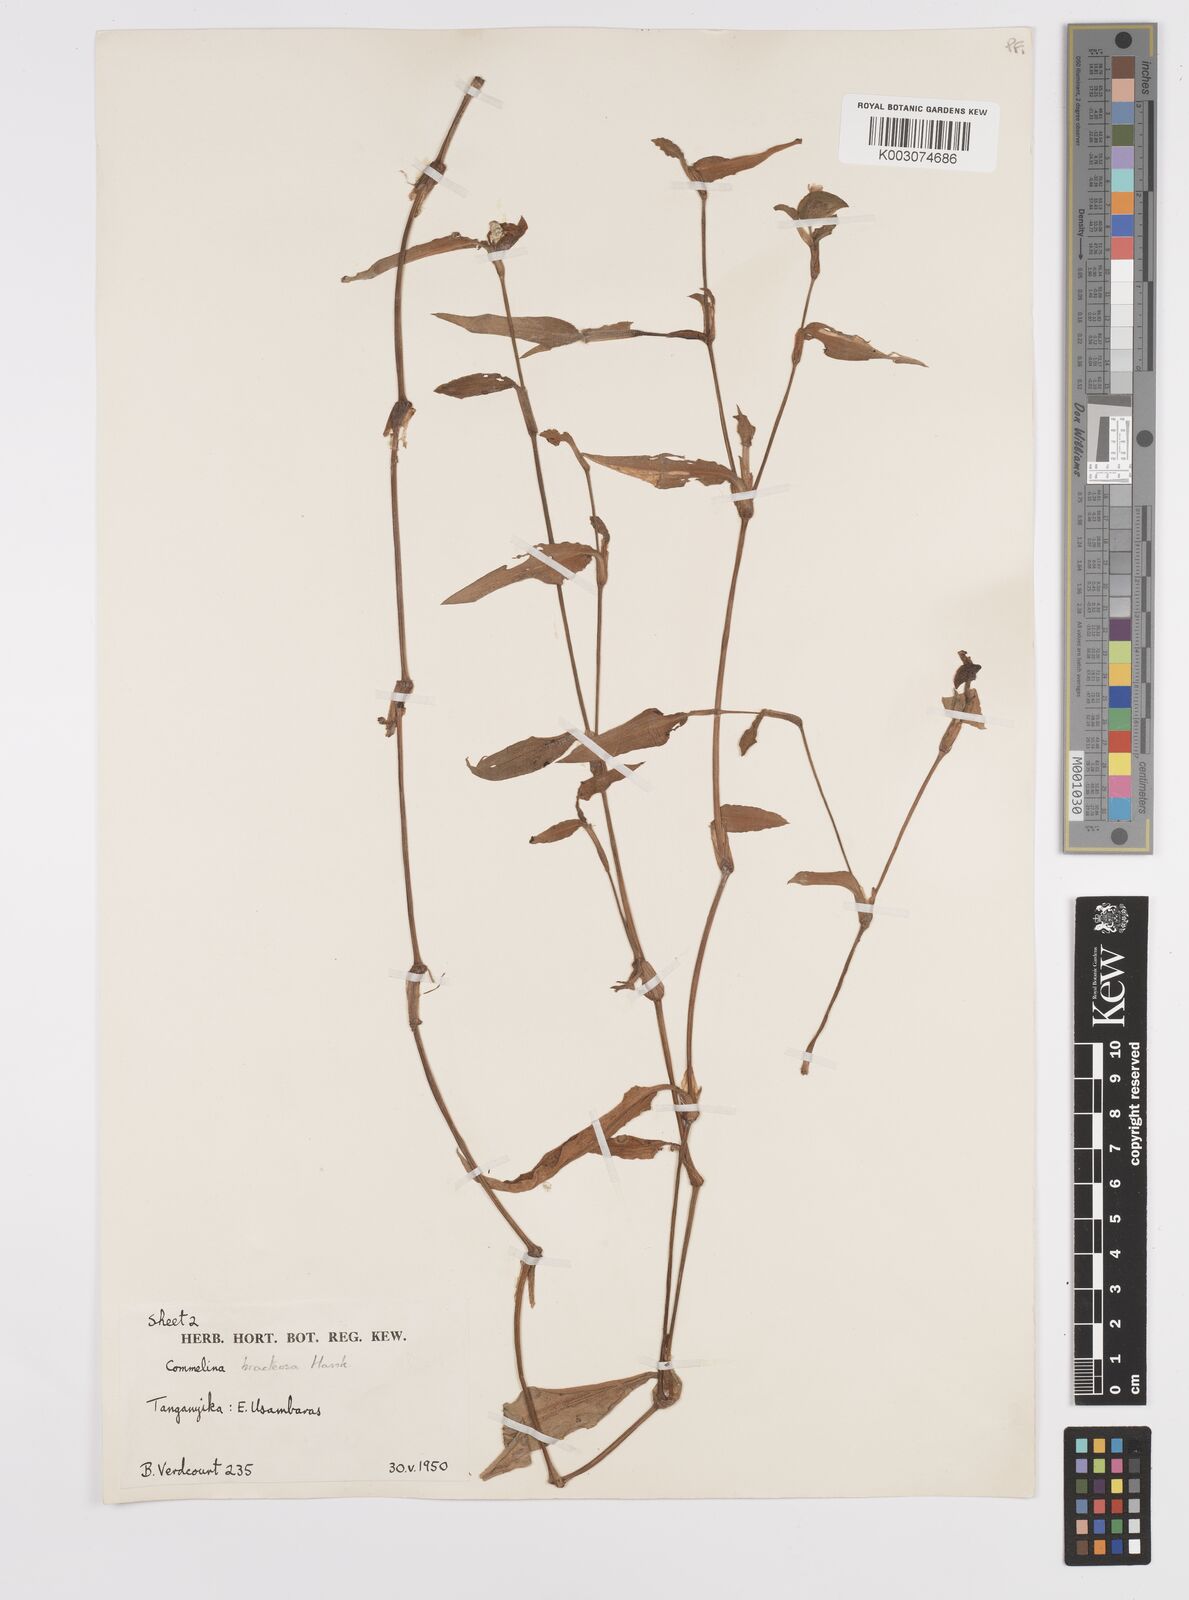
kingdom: Plantae
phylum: Tracheophyta
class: Liliopsida
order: Commelinales
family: Commelinaceae
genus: Commelina
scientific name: Commelina bracteosa
